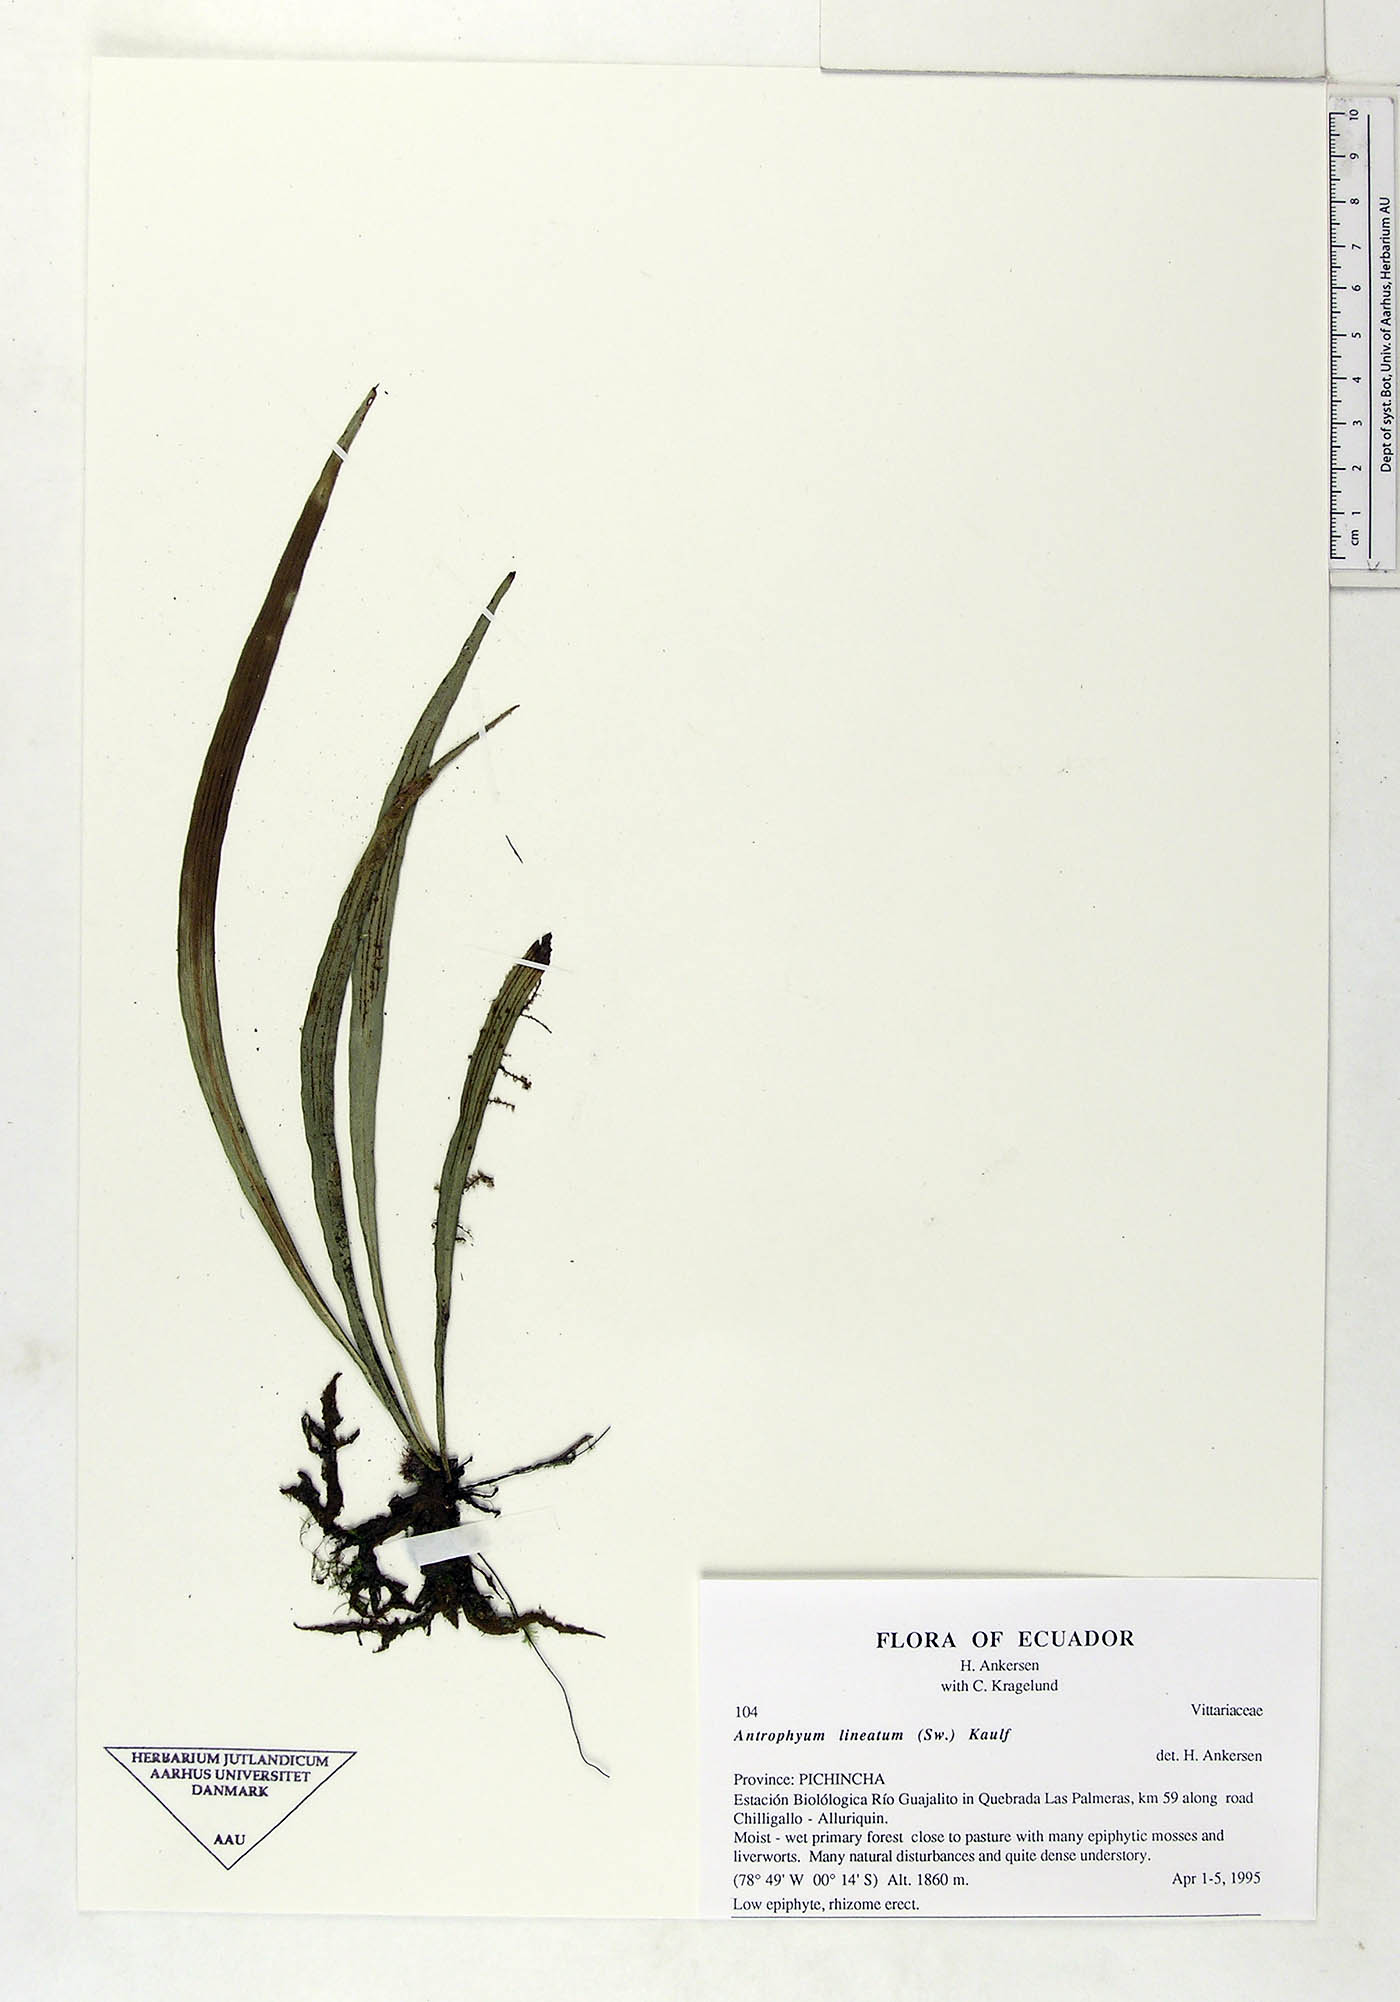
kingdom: Plantae
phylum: Tracheophyta
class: Polypodiopsida
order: Polypodiales
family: Pteridaceae
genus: Polytaenium
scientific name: Polytaenium lineatum
